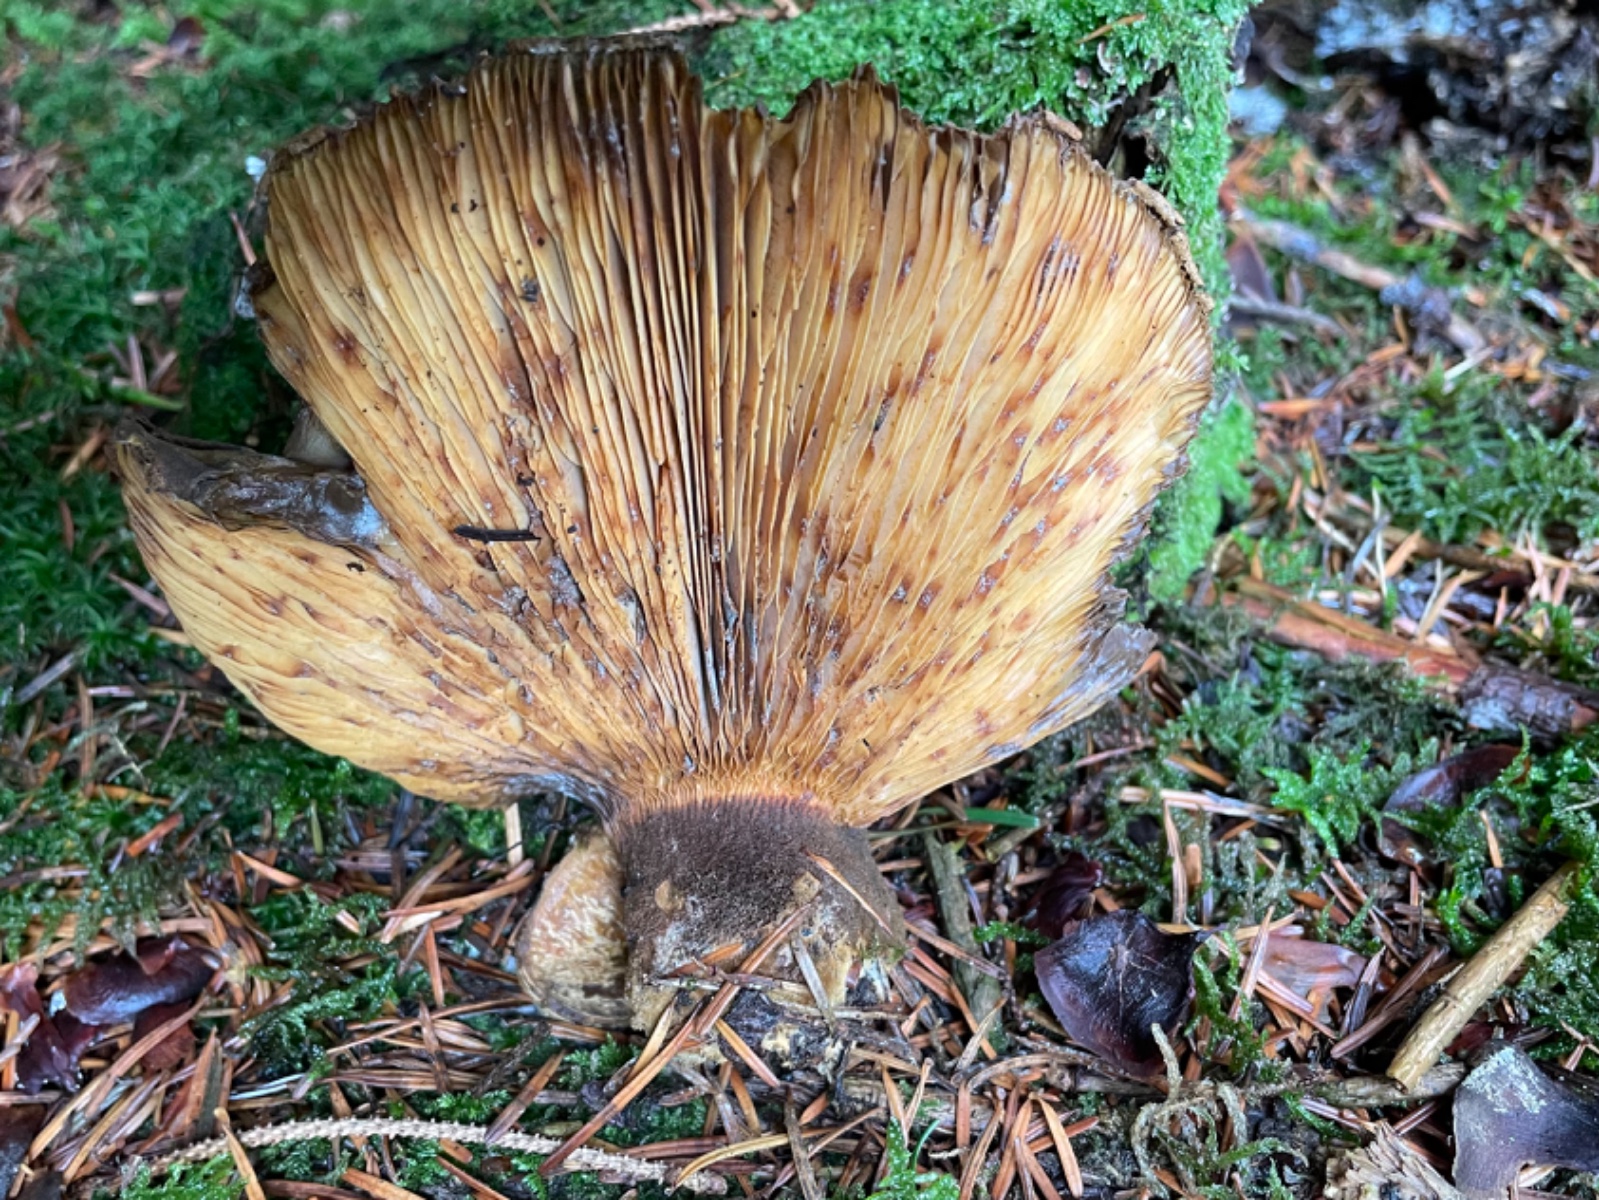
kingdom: Fungi
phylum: Basidiomycota
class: Agaricomycetes
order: Boletales
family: Tapinellaceae
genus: Tapinella
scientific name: Tapinella atrotomentosa
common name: sortfiltet viftesvamp
